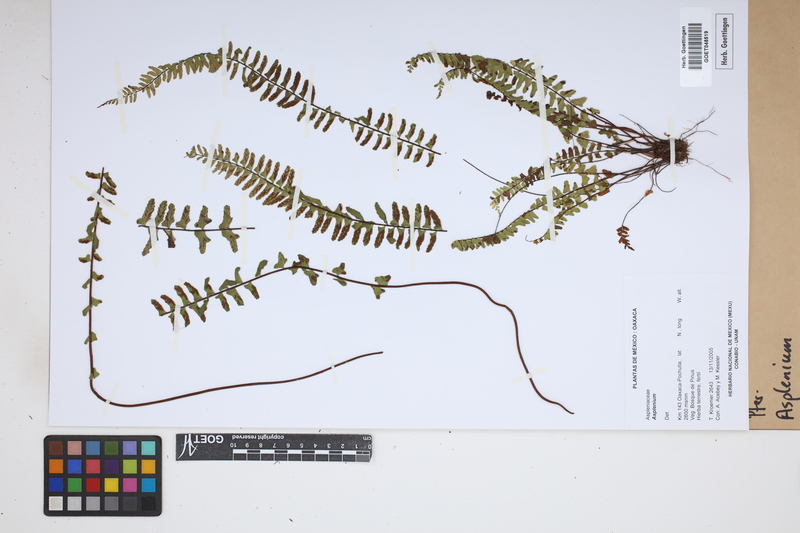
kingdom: Plantae
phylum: Tracheophyta
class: Polypodiopsida
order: Polypodiales
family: Aspleniaceae
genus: Asplenium
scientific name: Asplenium
